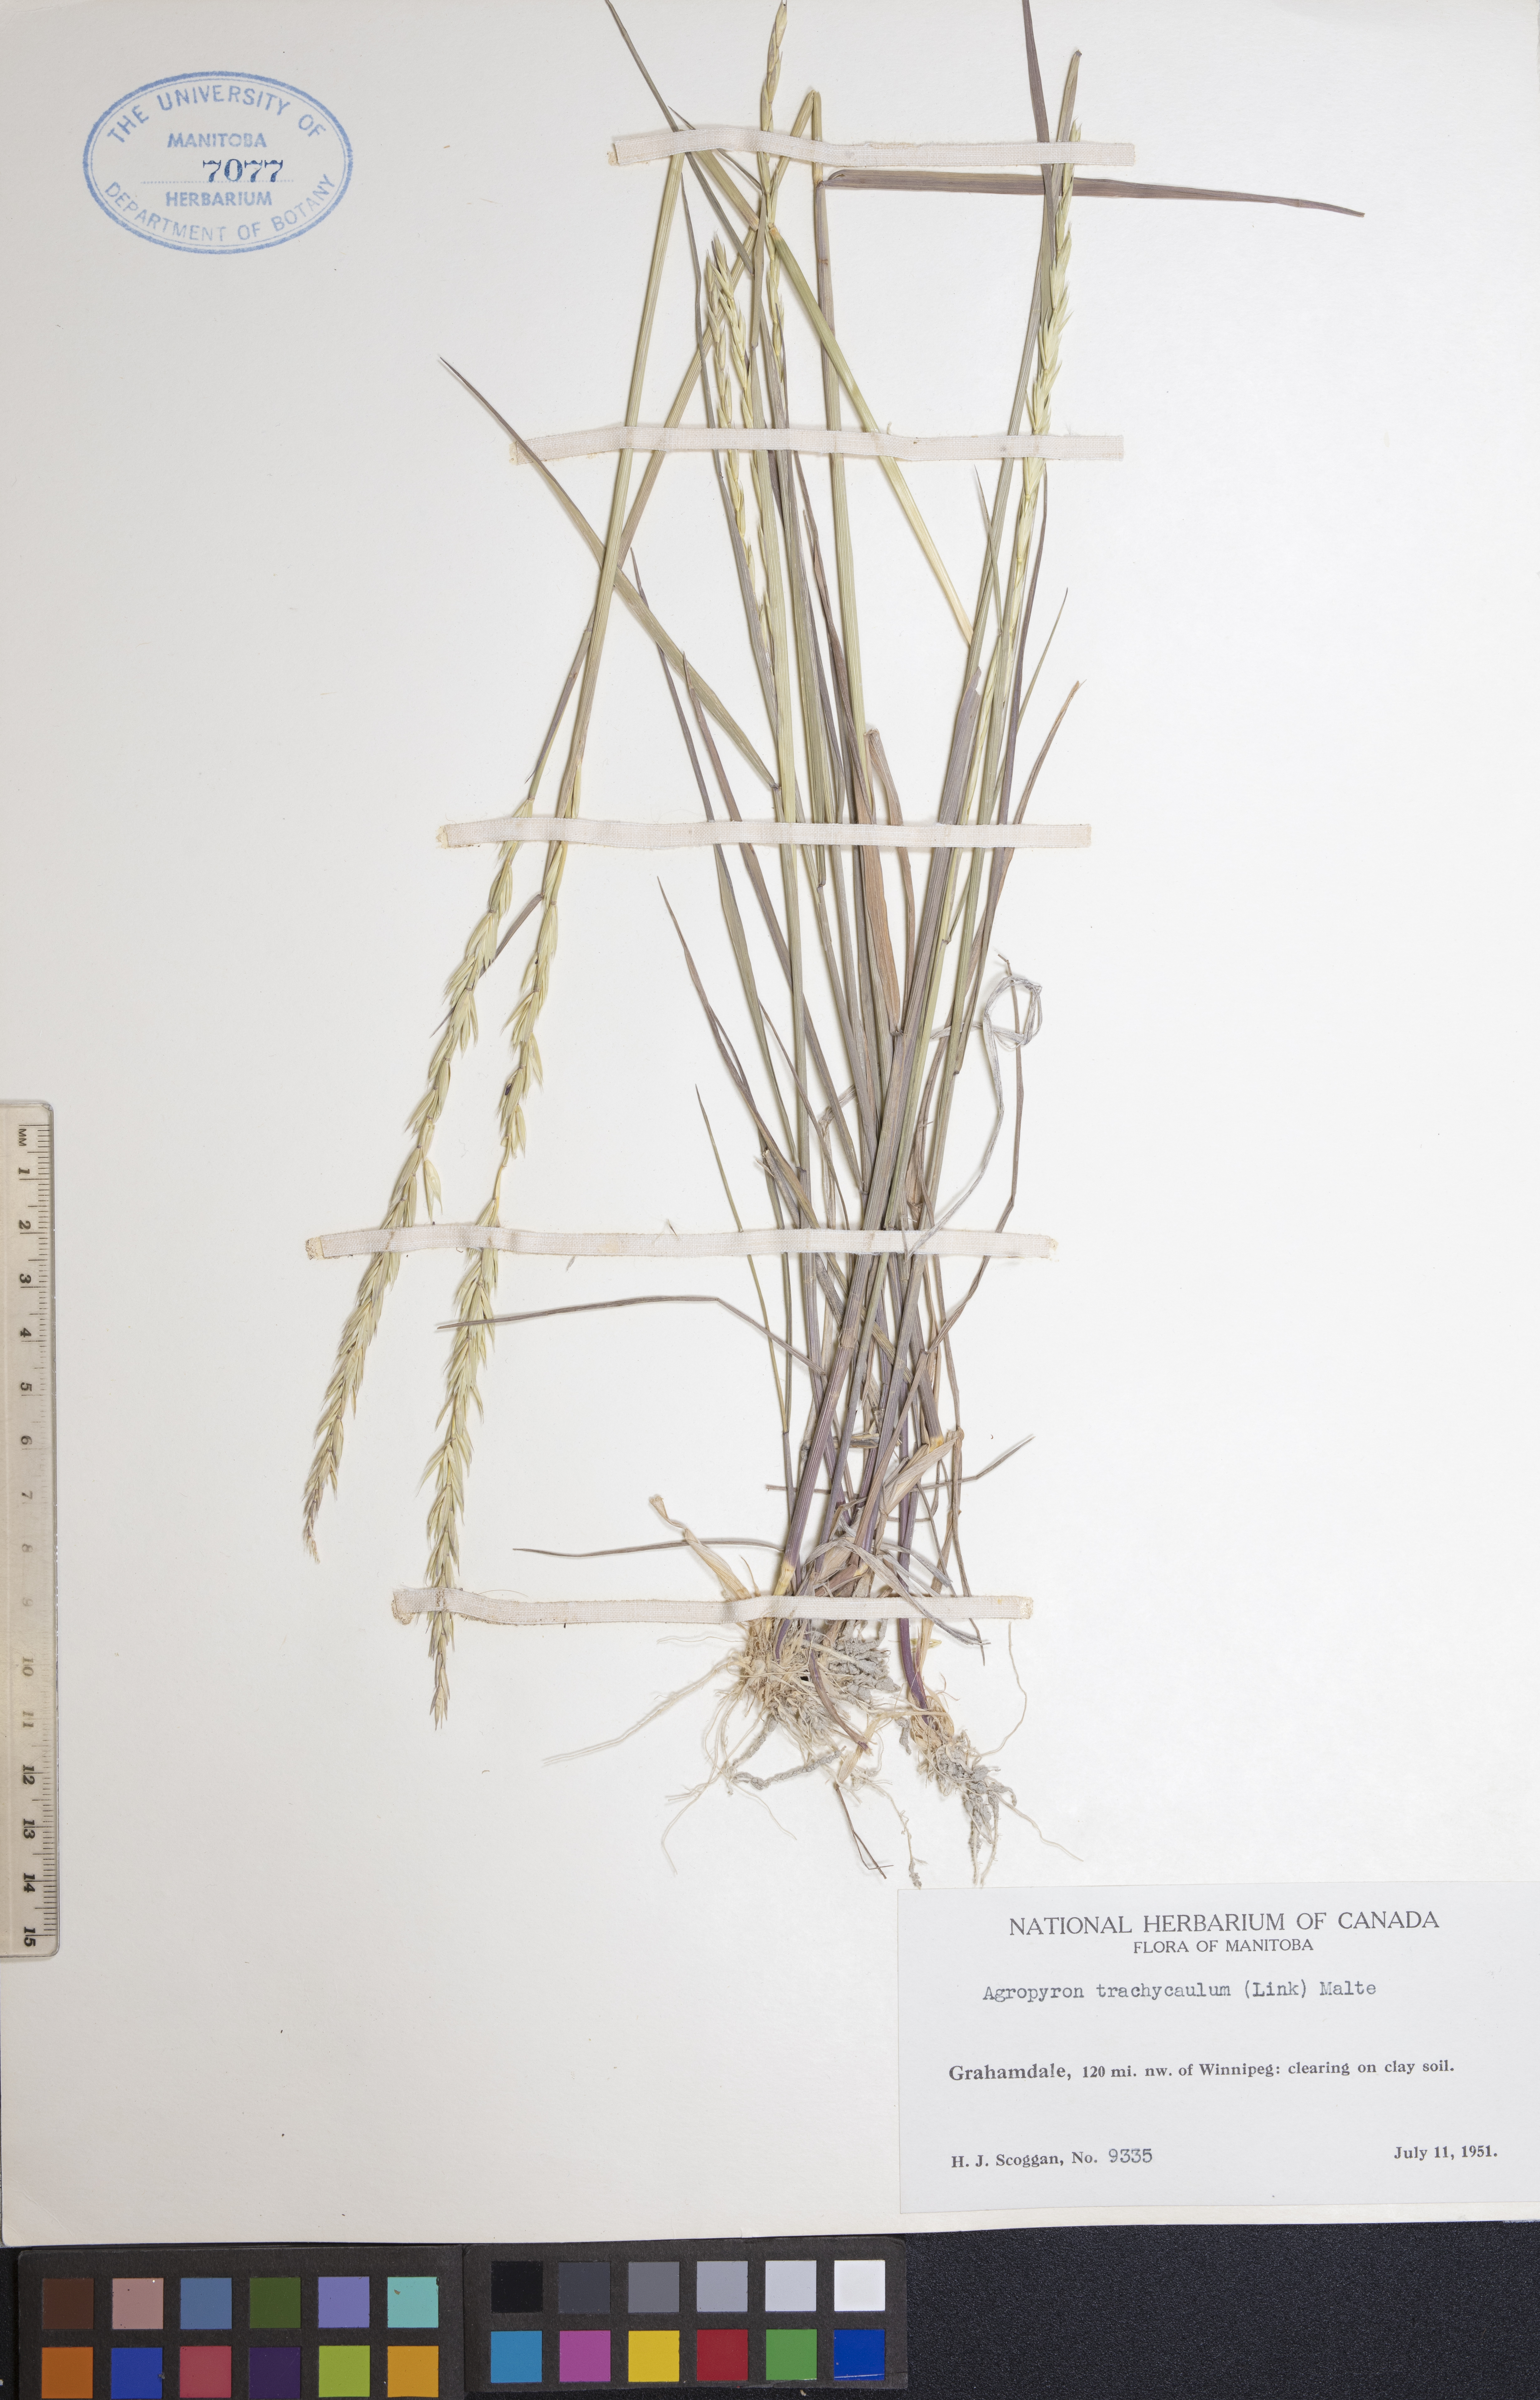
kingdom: Plantae
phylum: Tracheophyta
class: Liliopsida
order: Poales
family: Poaceae
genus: Elymus
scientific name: Elymus violaceus
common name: Arctic wheatgrass
